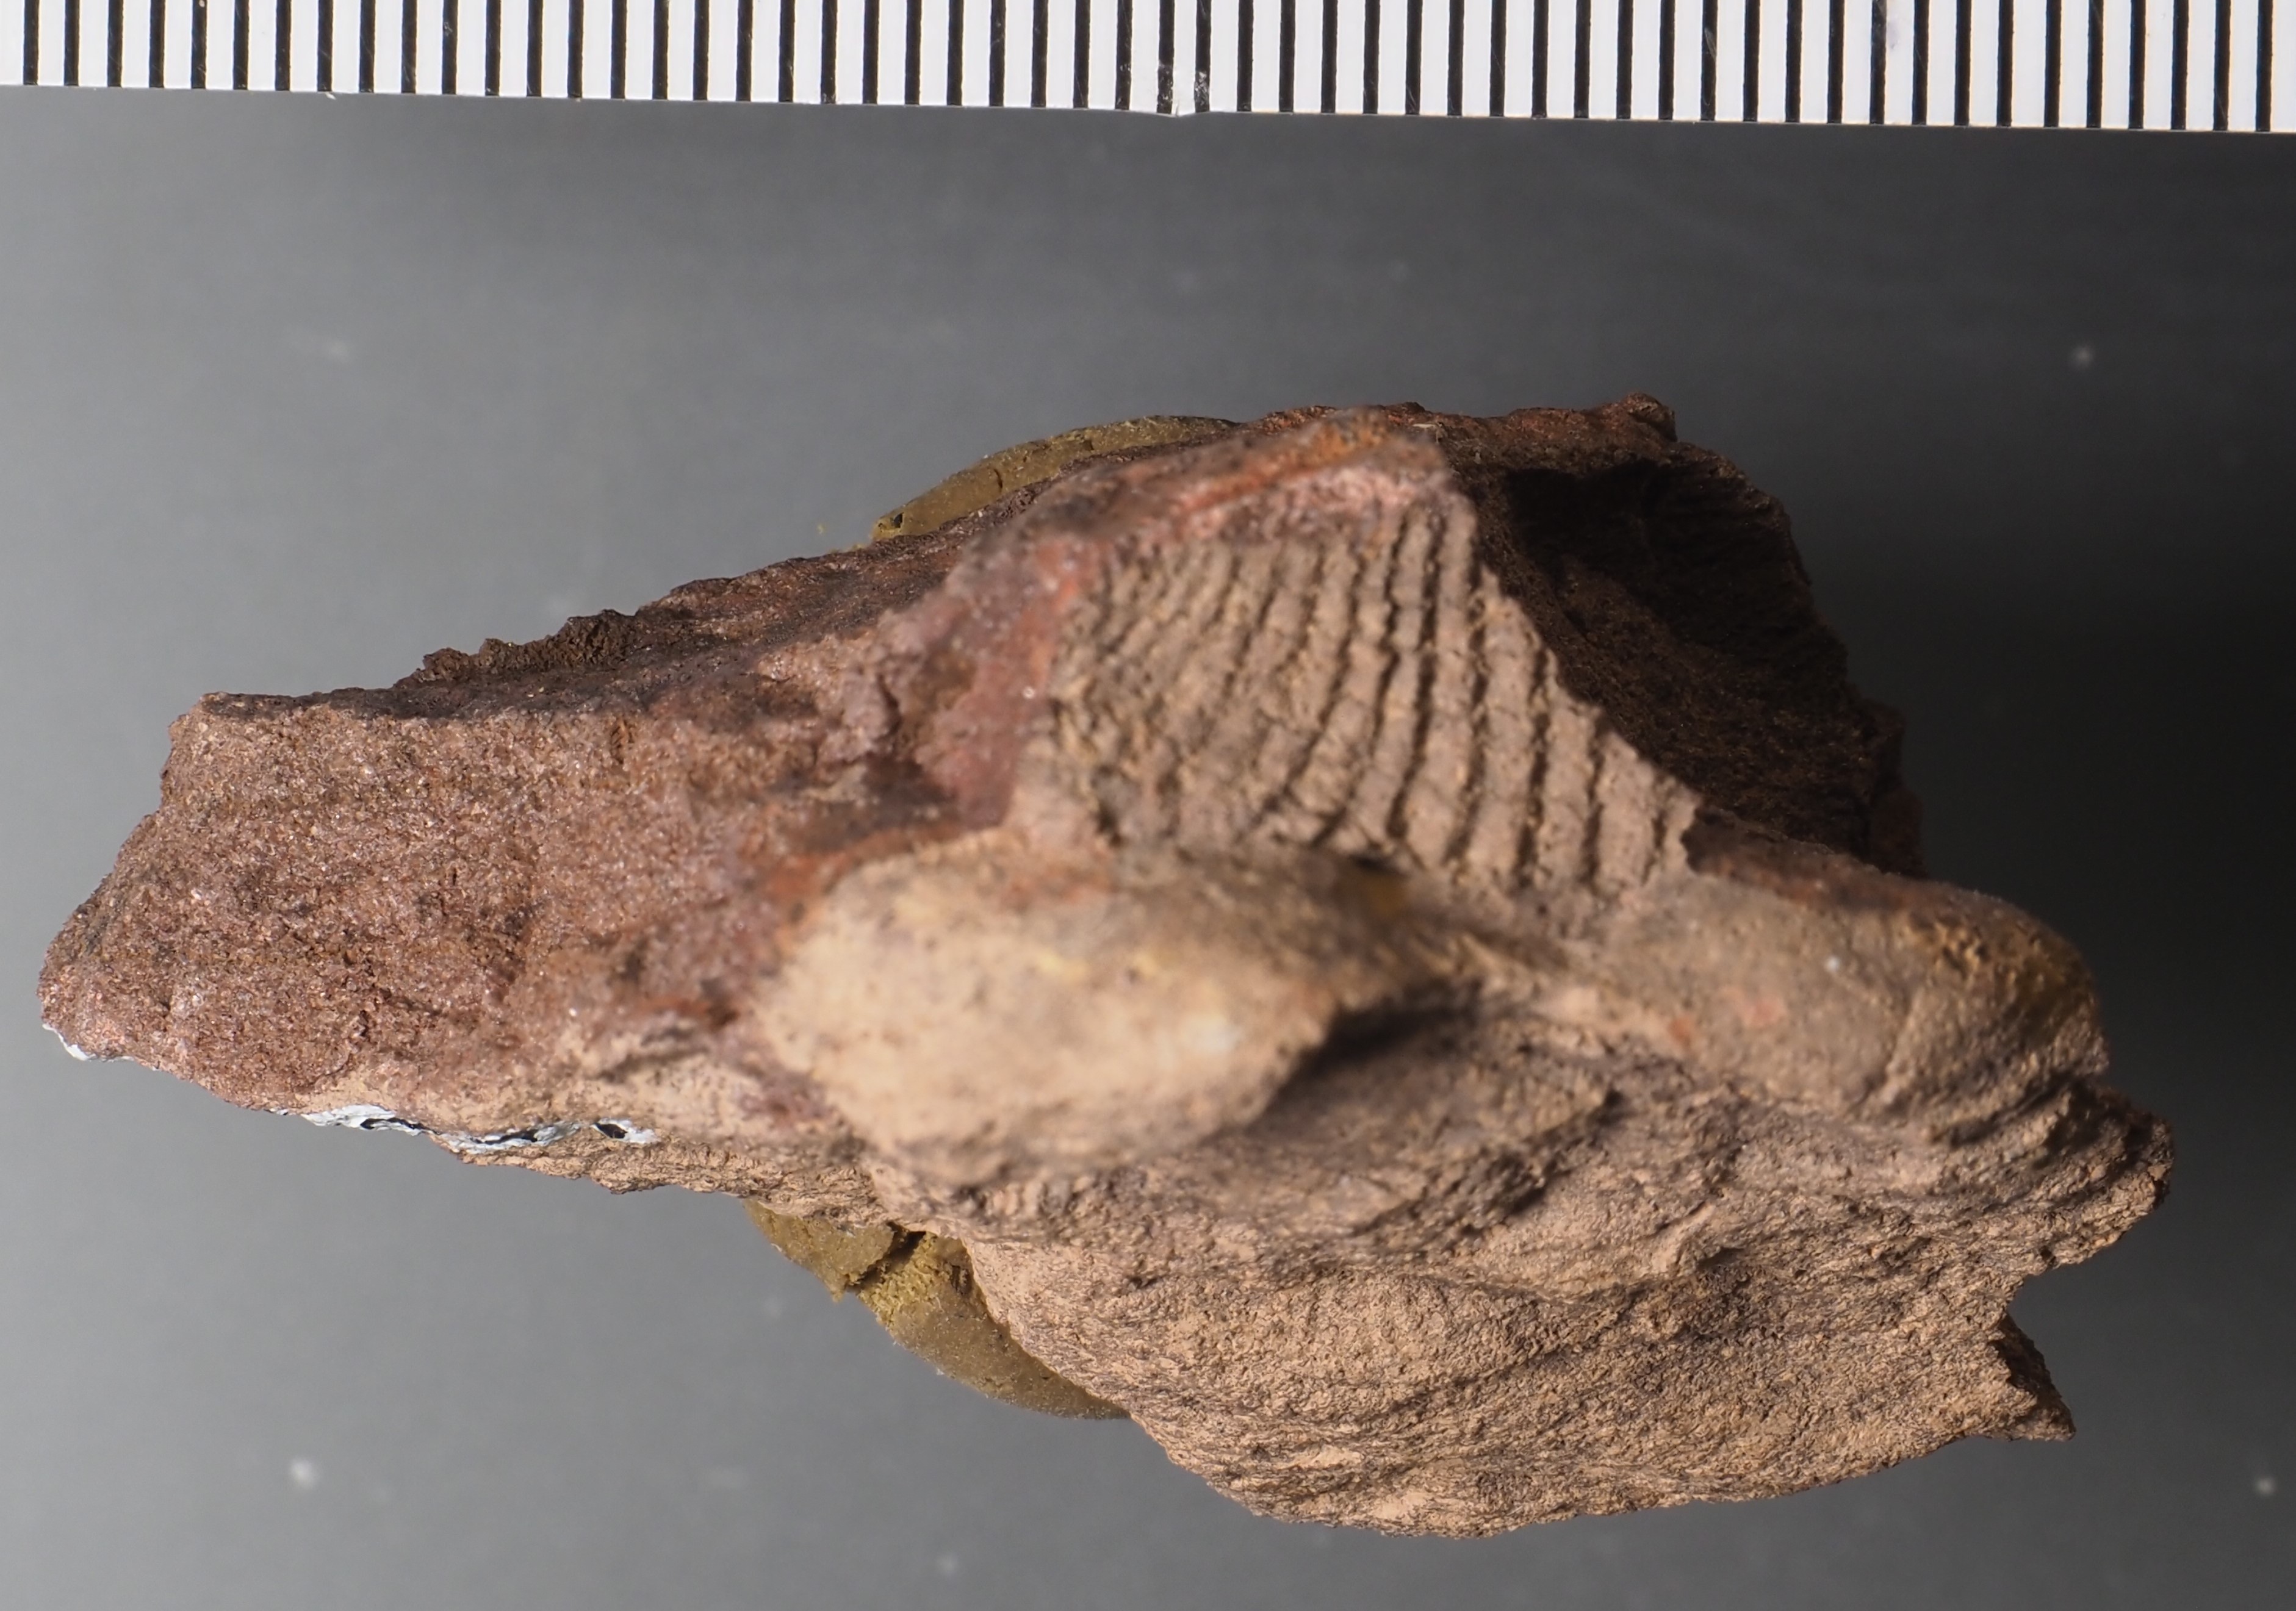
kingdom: Animalia
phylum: Mollusca
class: Cricoconarida
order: Tentaculitida
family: Tentaculitidae
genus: Tentaculites
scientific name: Tentaculites
